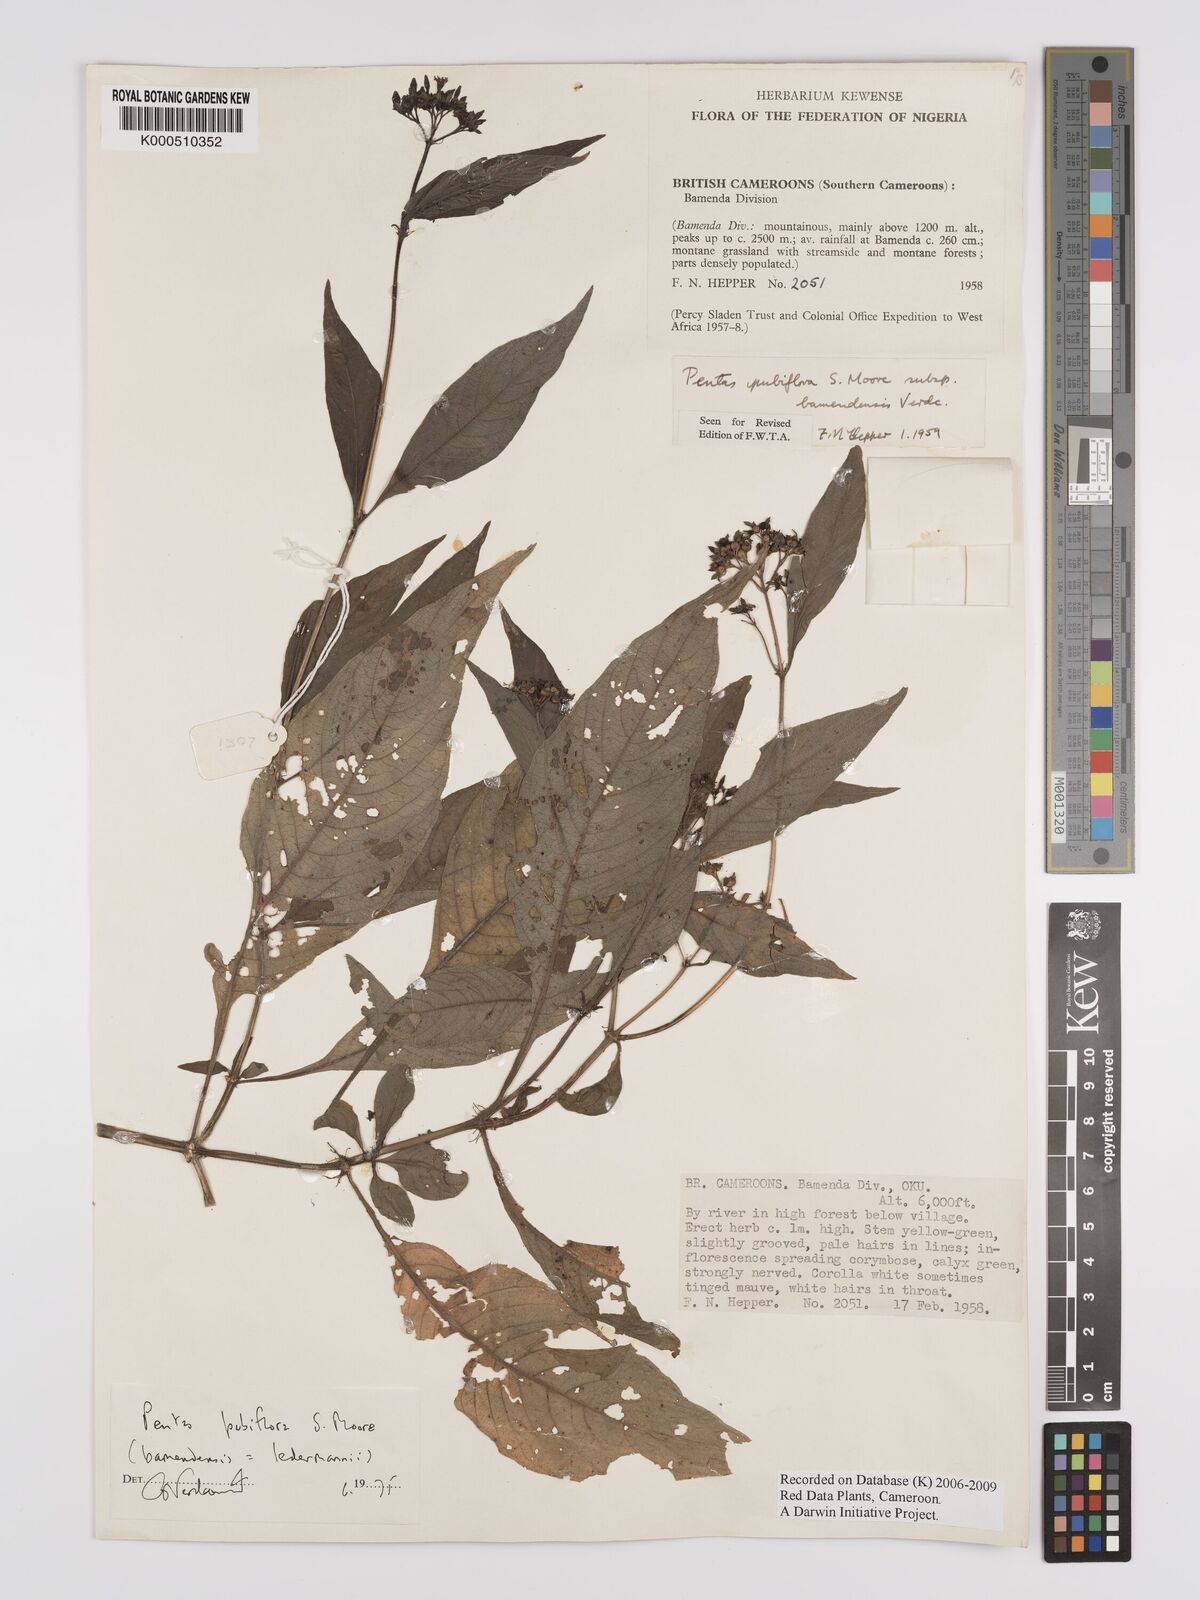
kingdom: Plantae
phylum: Tracheophyta
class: Magnoliopsida
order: Gentianales
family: Rubiaceae
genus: Pentas
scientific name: Pentas pubiflora
